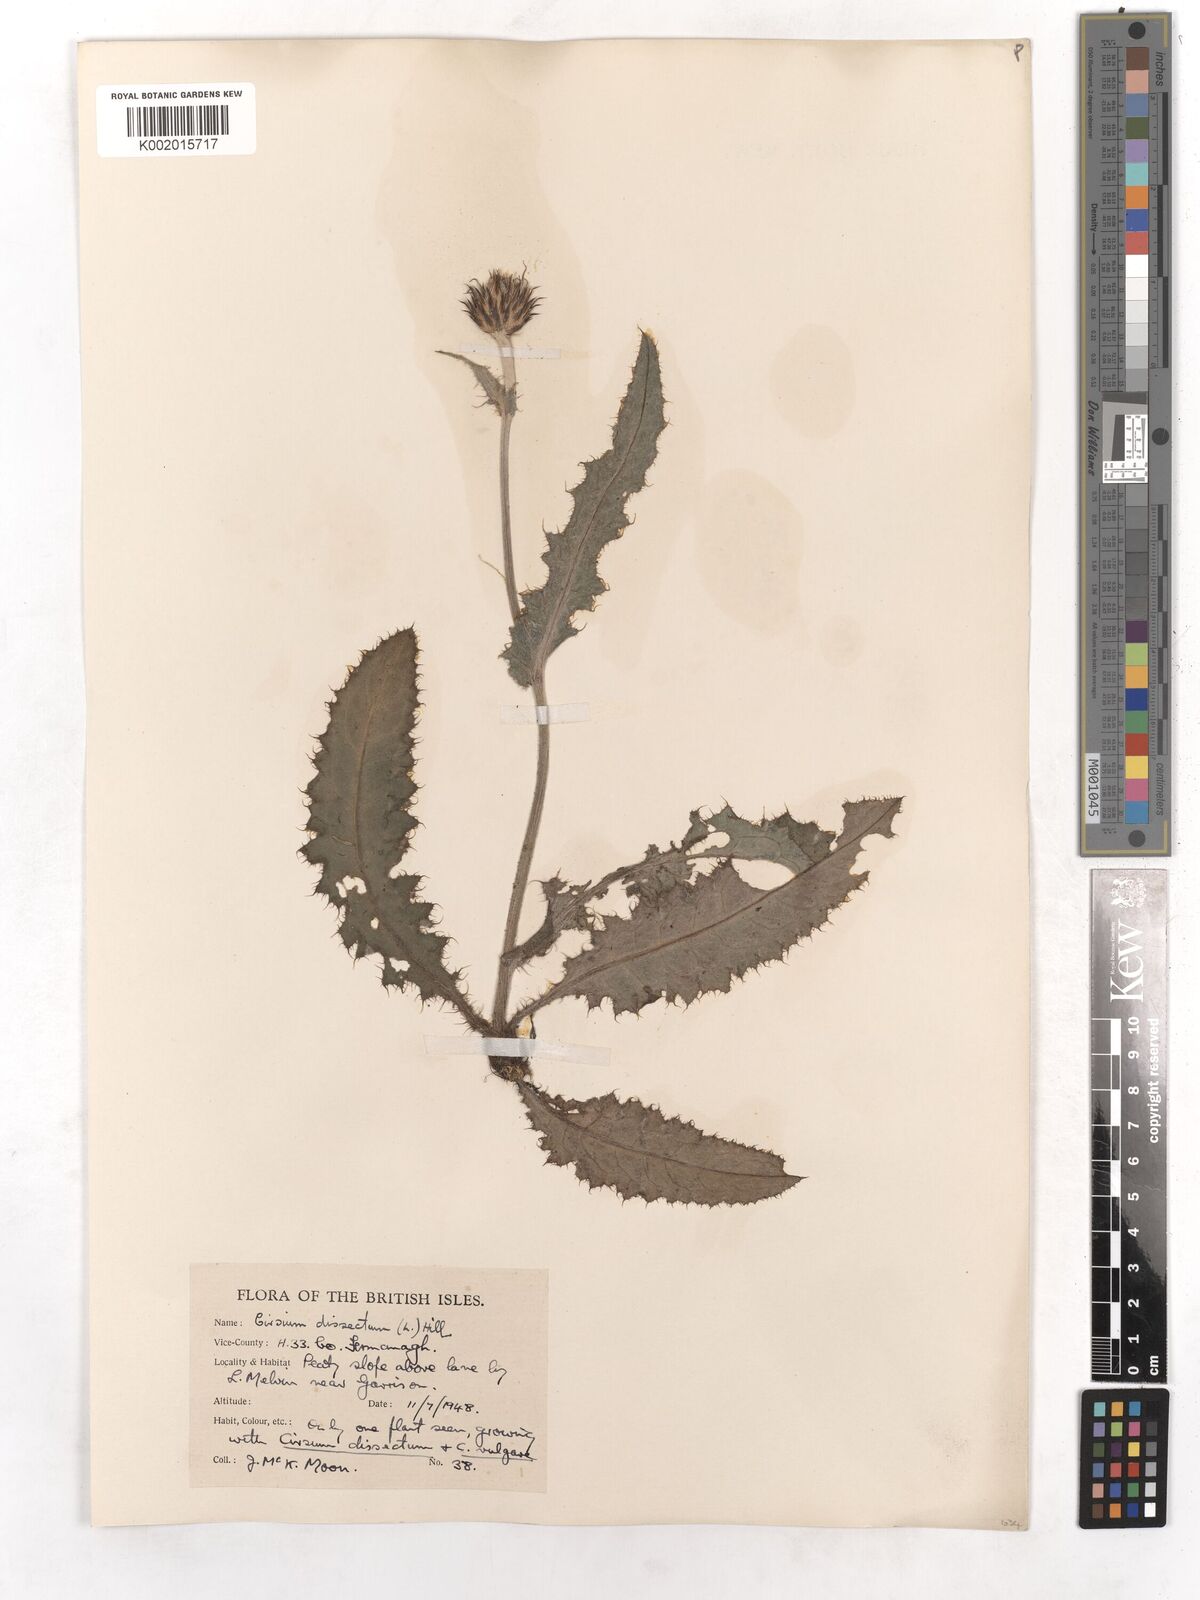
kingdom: Plantae
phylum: Tracheophyta
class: Magnoliopsida
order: Asterales
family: Asteraceae
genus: Cirsium
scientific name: Cirsium dissectum
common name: Meadow thistle
